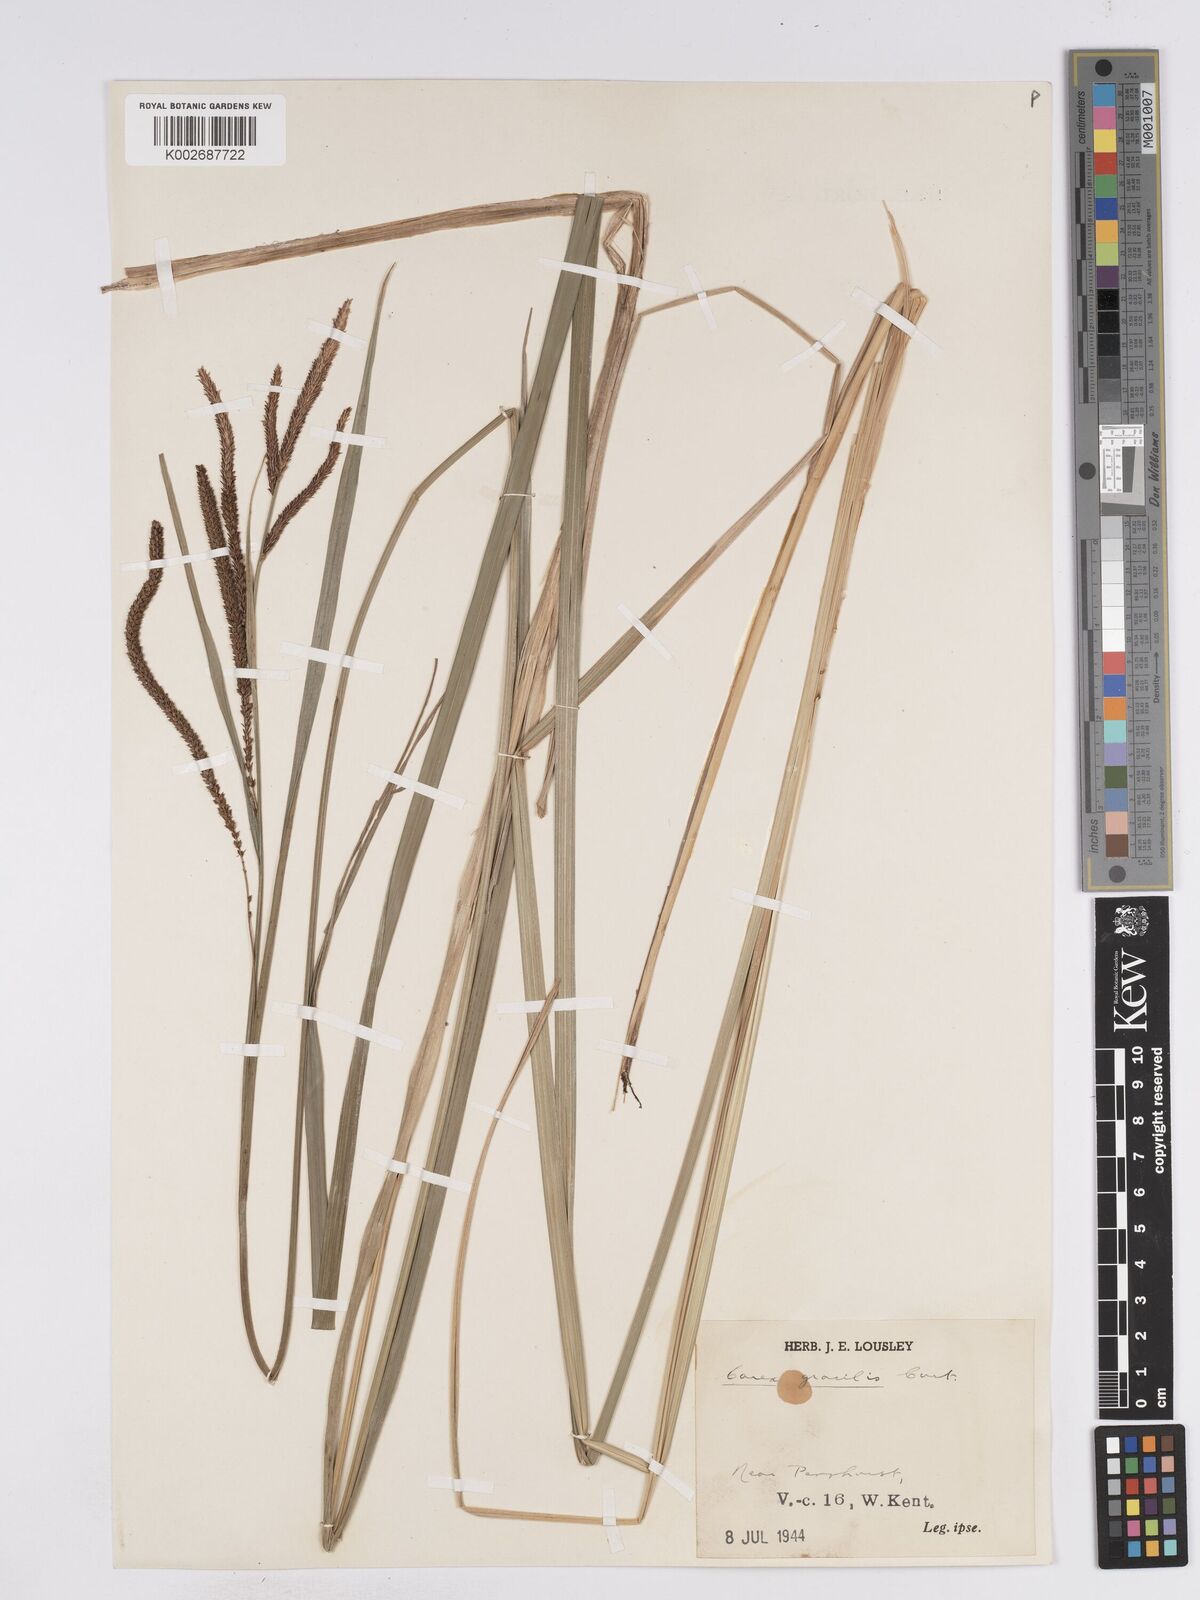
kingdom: Plantae
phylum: Tracheophyta
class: Liliopsida
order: Poales
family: Cyperaceae
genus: Carex
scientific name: Carex acuta
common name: Slender tufted-sedge
